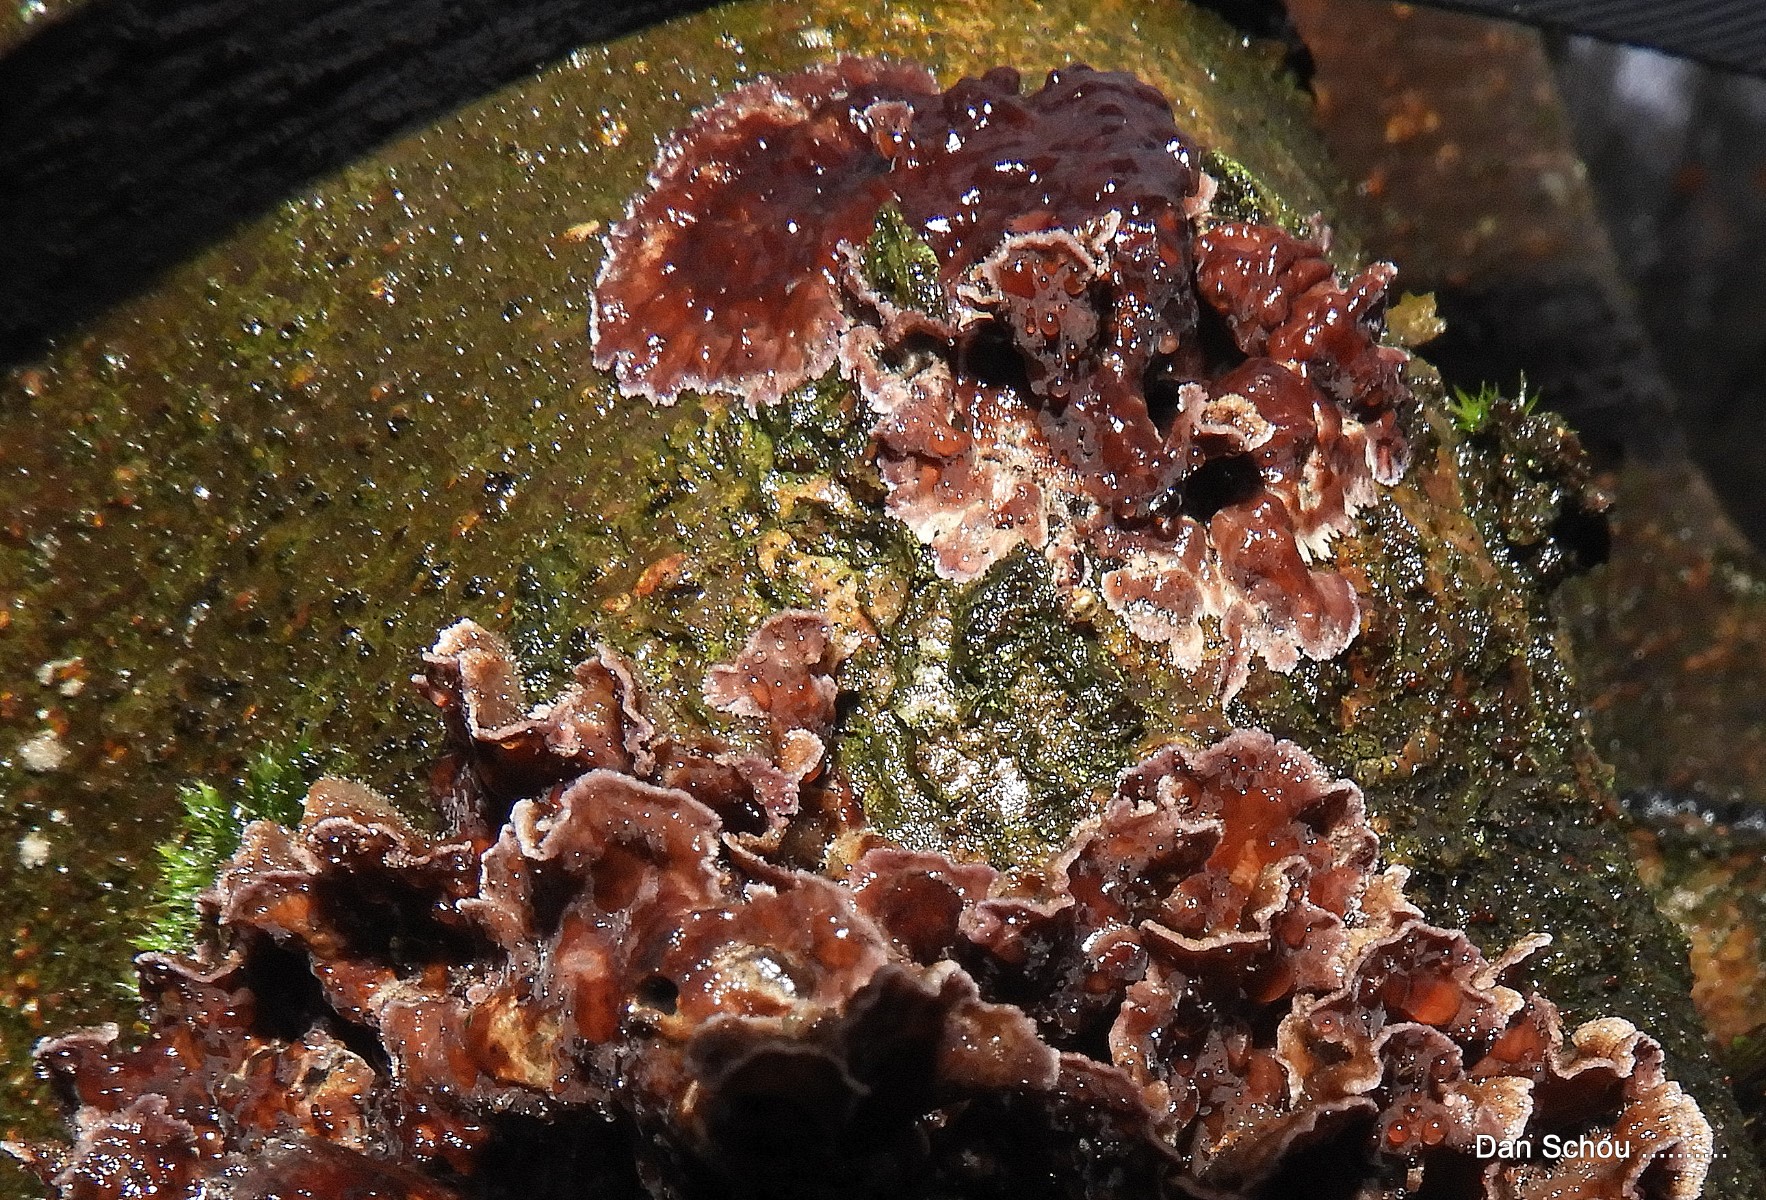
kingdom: Fungi
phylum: Basidiomycota
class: Agaricomycetes
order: Agaricales
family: Cyphellaceae
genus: Chondrostereum
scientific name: Chondrostereum purpureum
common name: purpurlædersvamp
